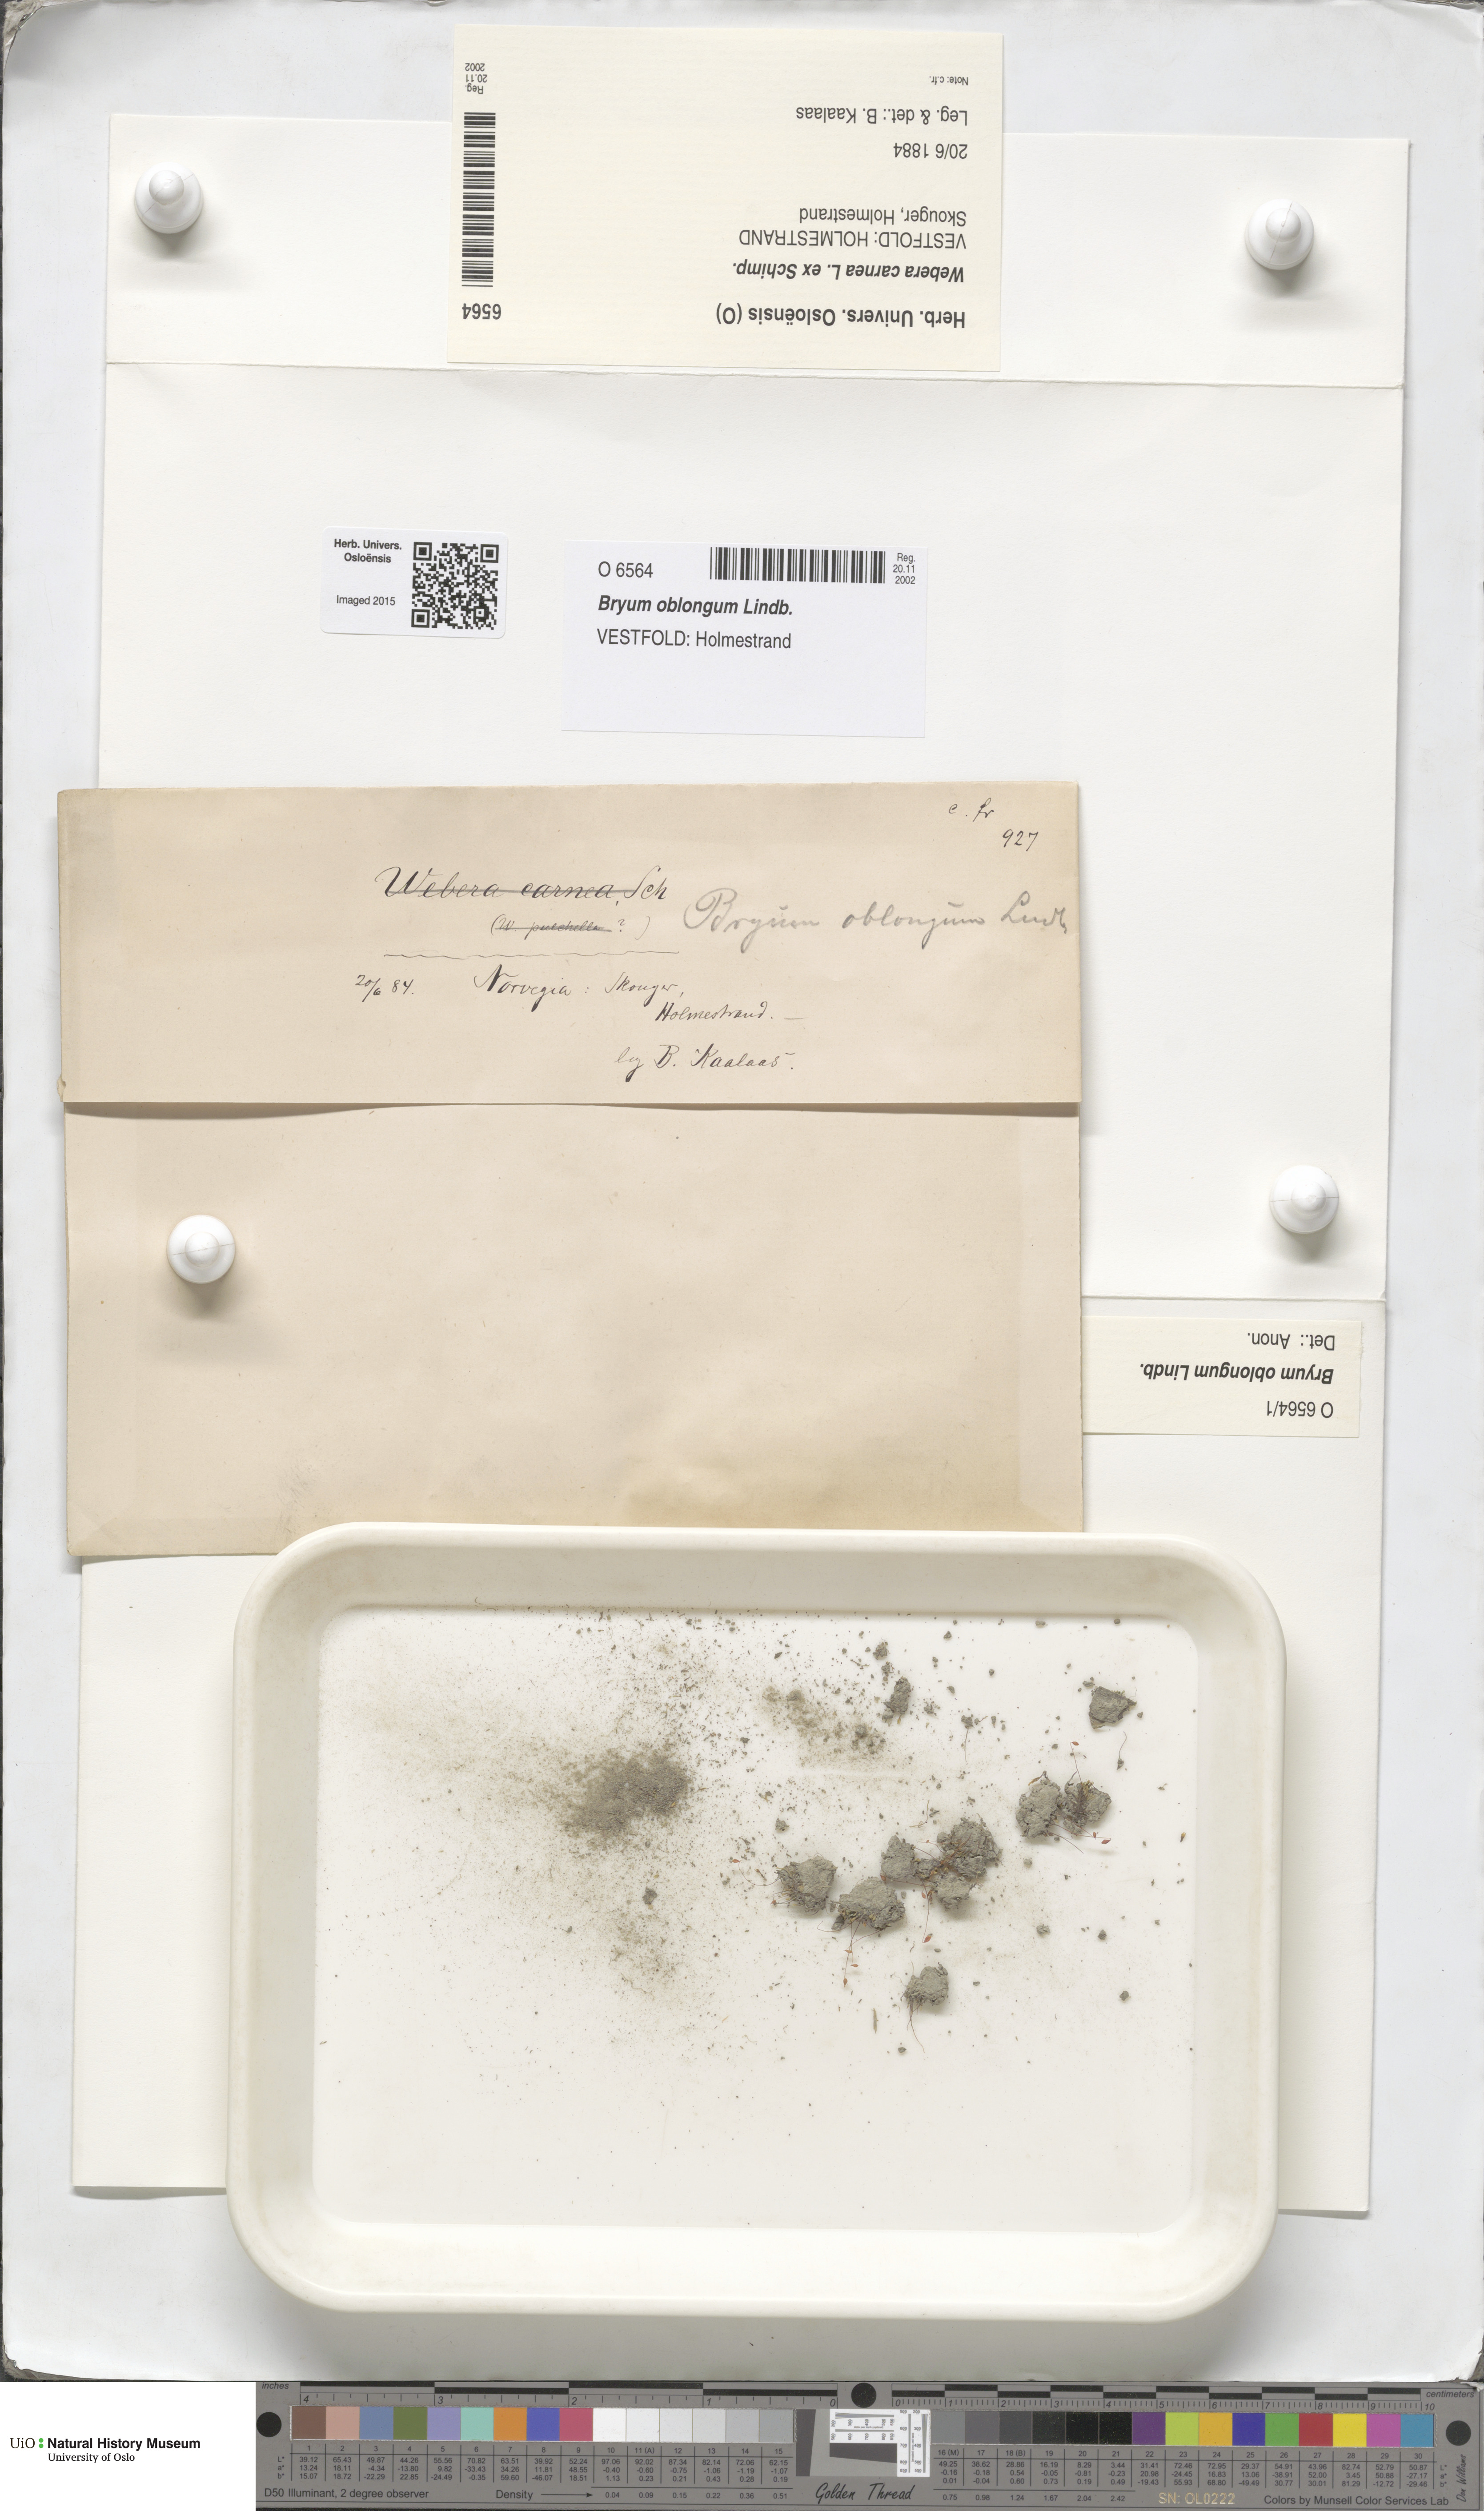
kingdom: Plantae
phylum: Bryophyta
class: Bryopsida
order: Bryales
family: Bryaceae
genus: Bryum
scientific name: Bryum oblongum
